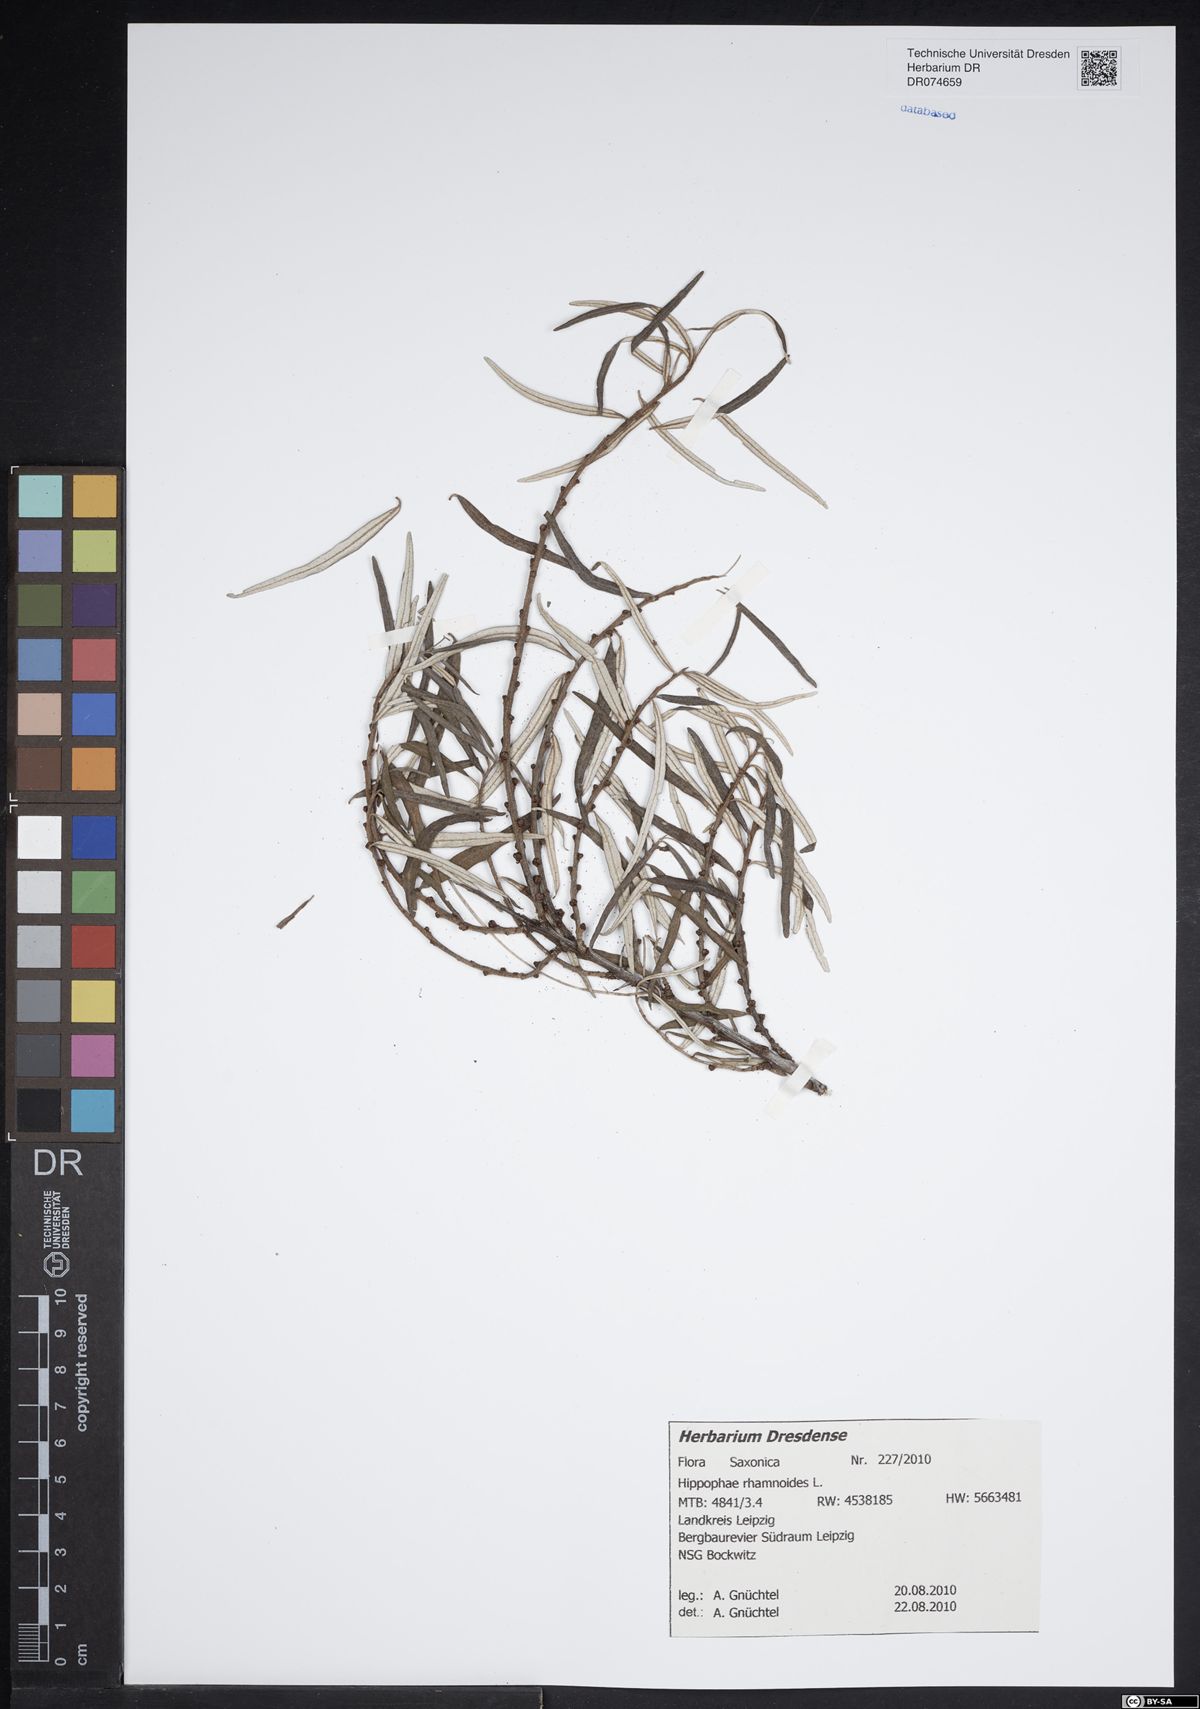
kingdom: Plantae
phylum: Tracheophyta
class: Magnoliopsida
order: Rosales
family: Elaeagnaceae
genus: Hippophae
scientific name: Hippophae rhamnoides
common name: Sea-buckthorn
